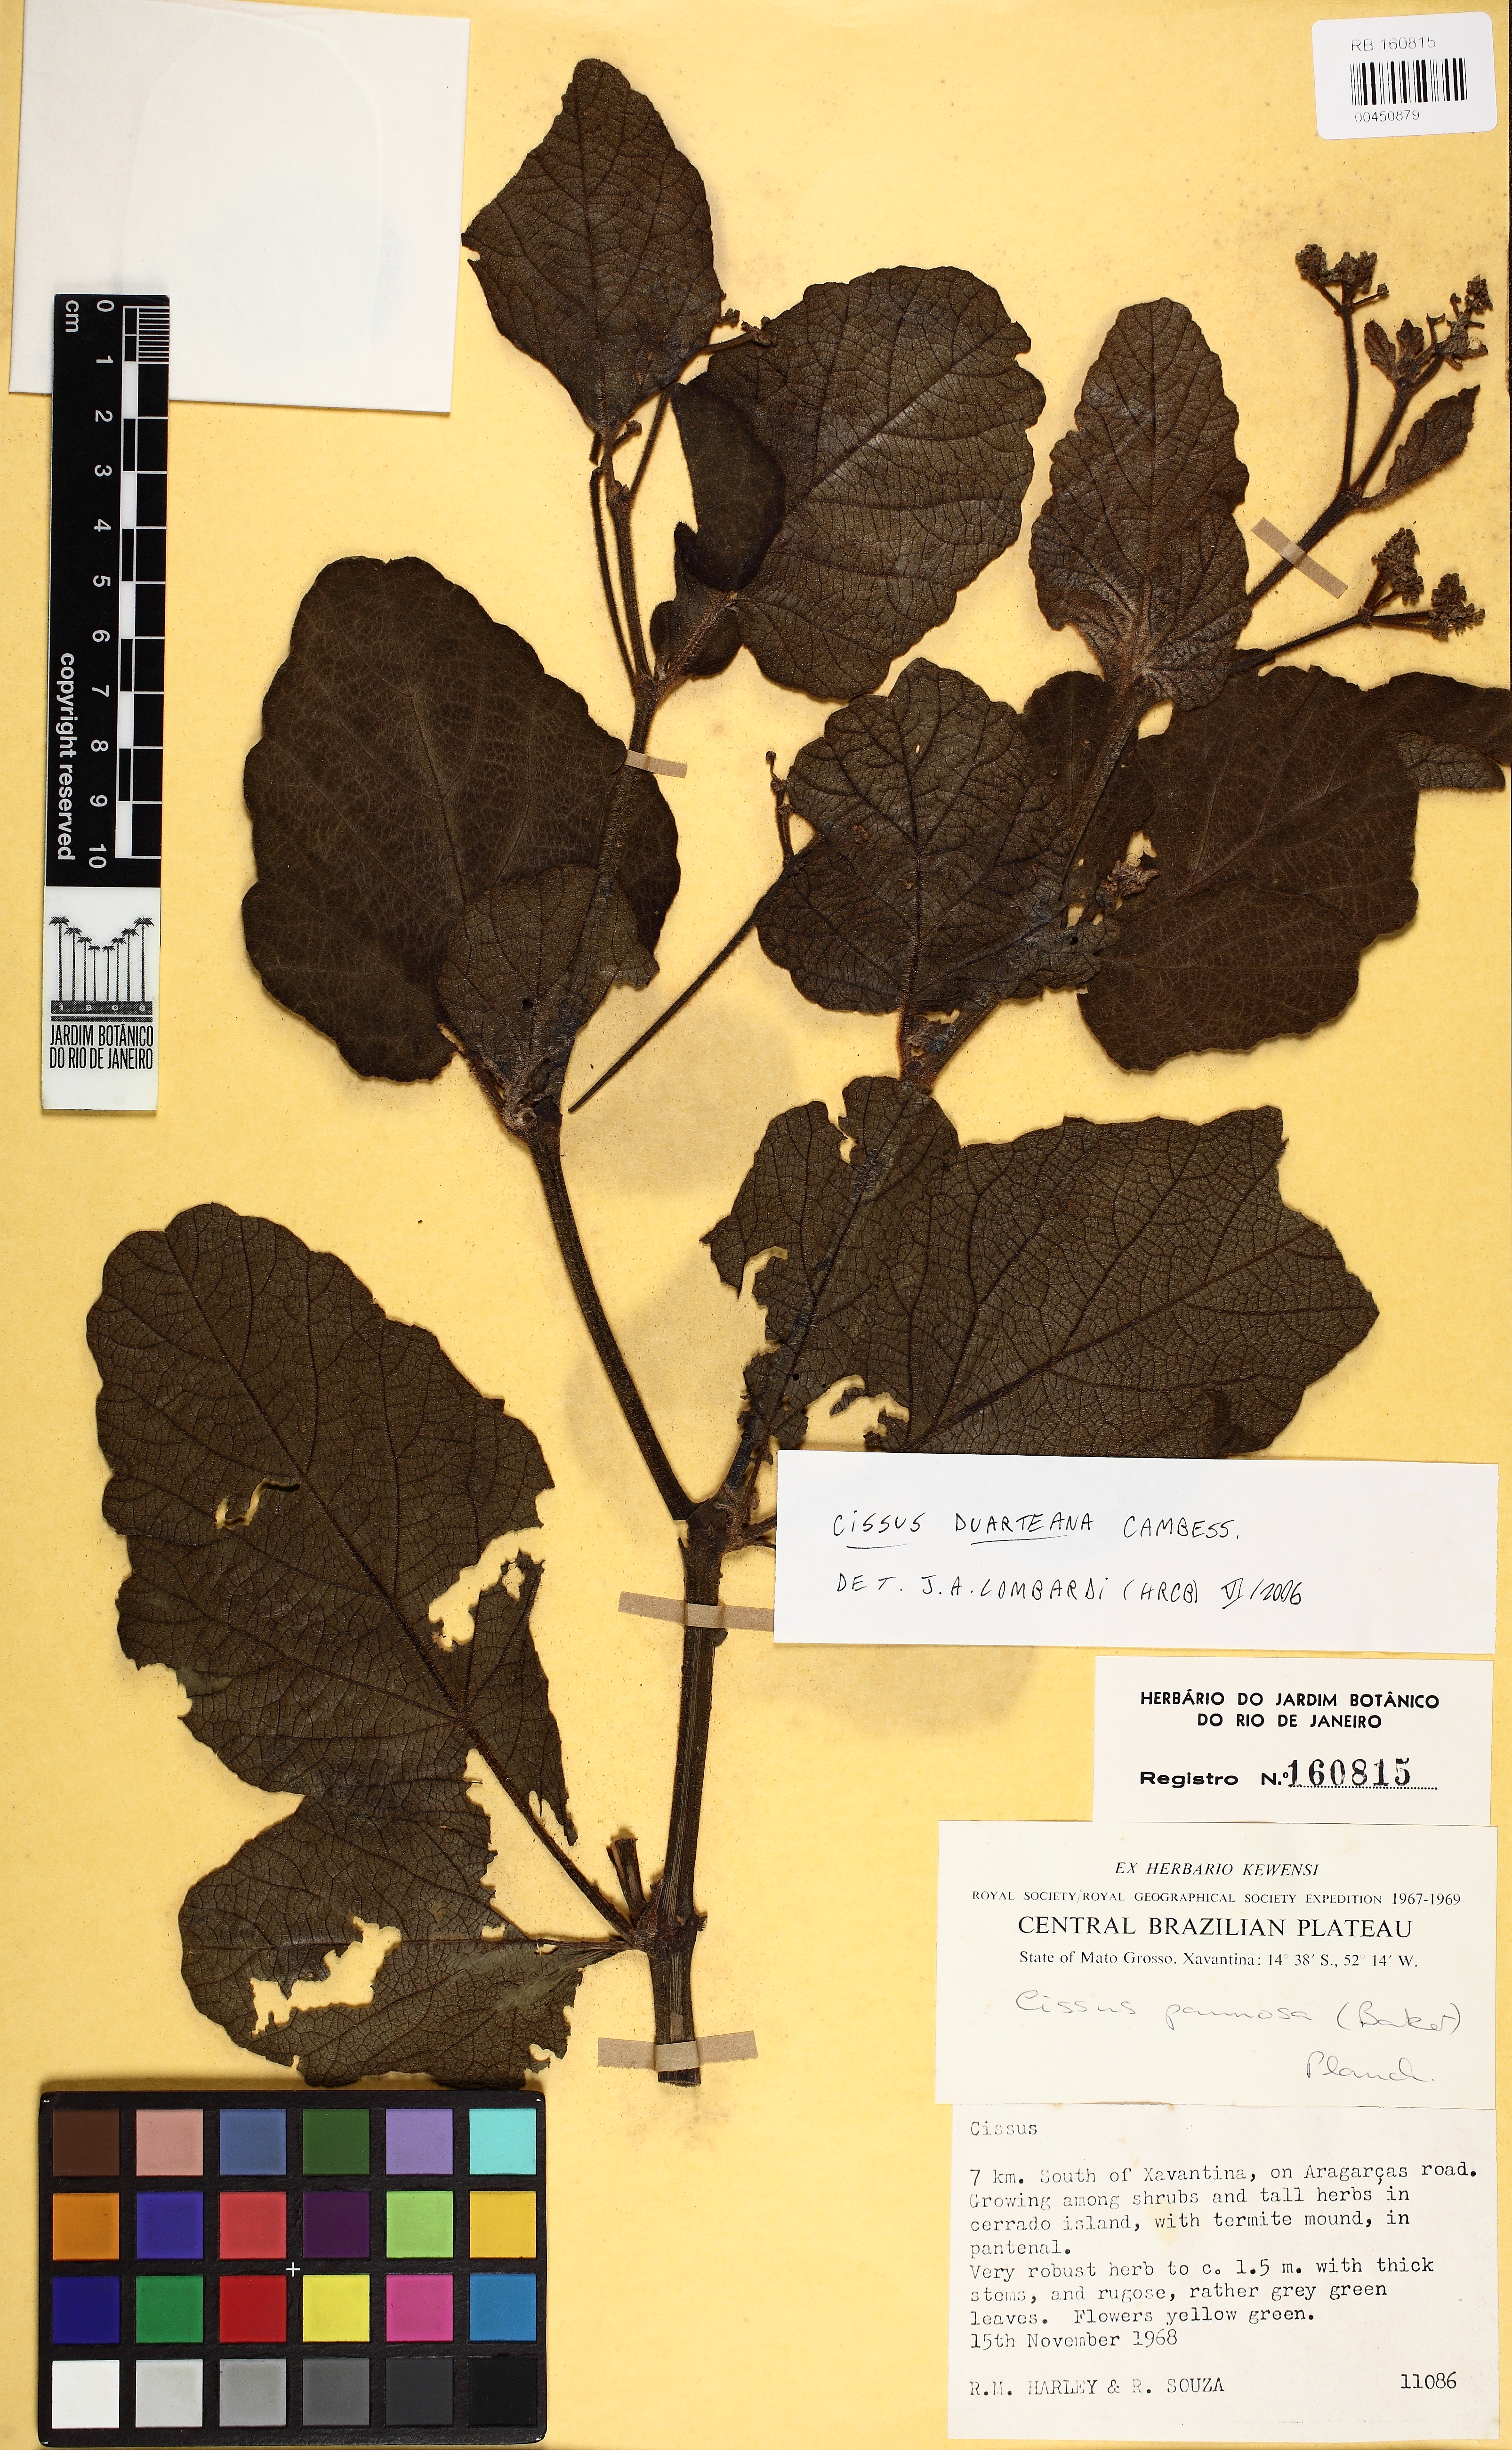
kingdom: Plantae
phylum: Tracheophyta
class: Magnoliopsida
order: Vitales
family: Vitaceae
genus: Cissus
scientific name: Cissus duarteana
